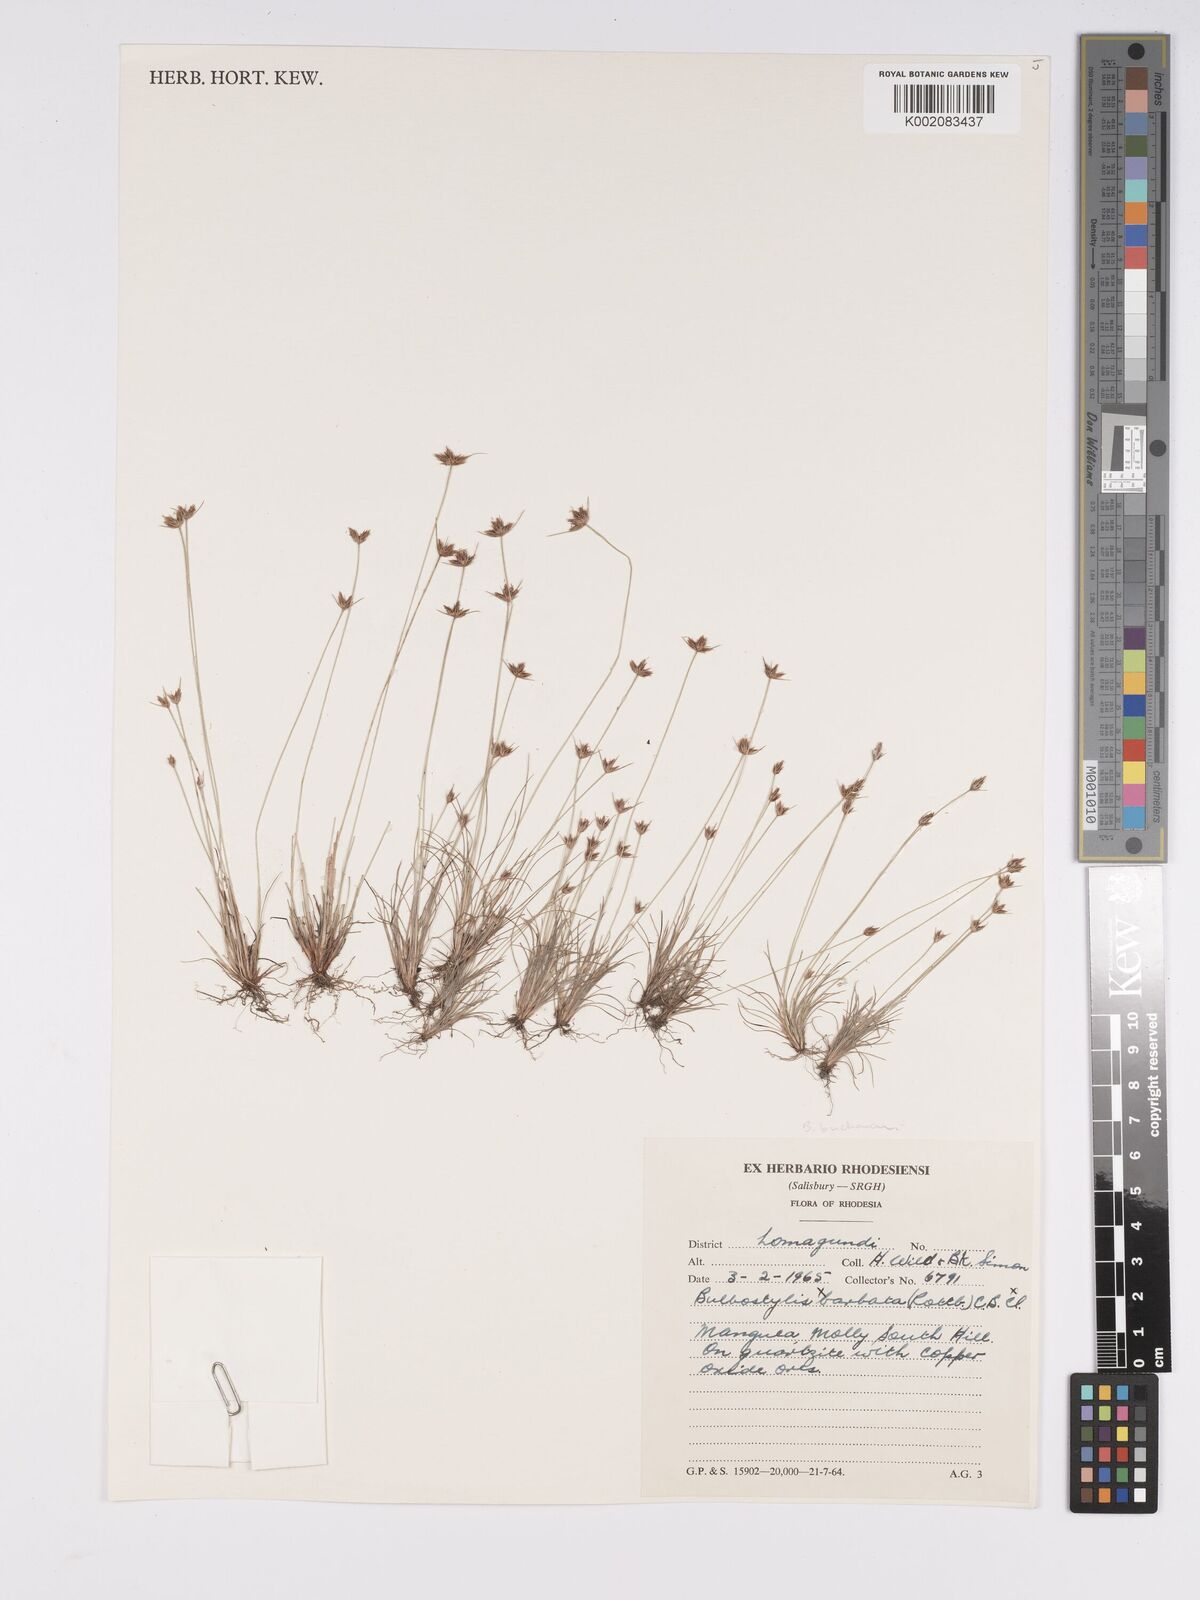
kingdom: Plantae
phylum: Tracheophyta
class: Liliopsida
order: Poales
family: Cyperaceae
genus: Bulbostylis
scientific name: Bulbostylis buchananii
